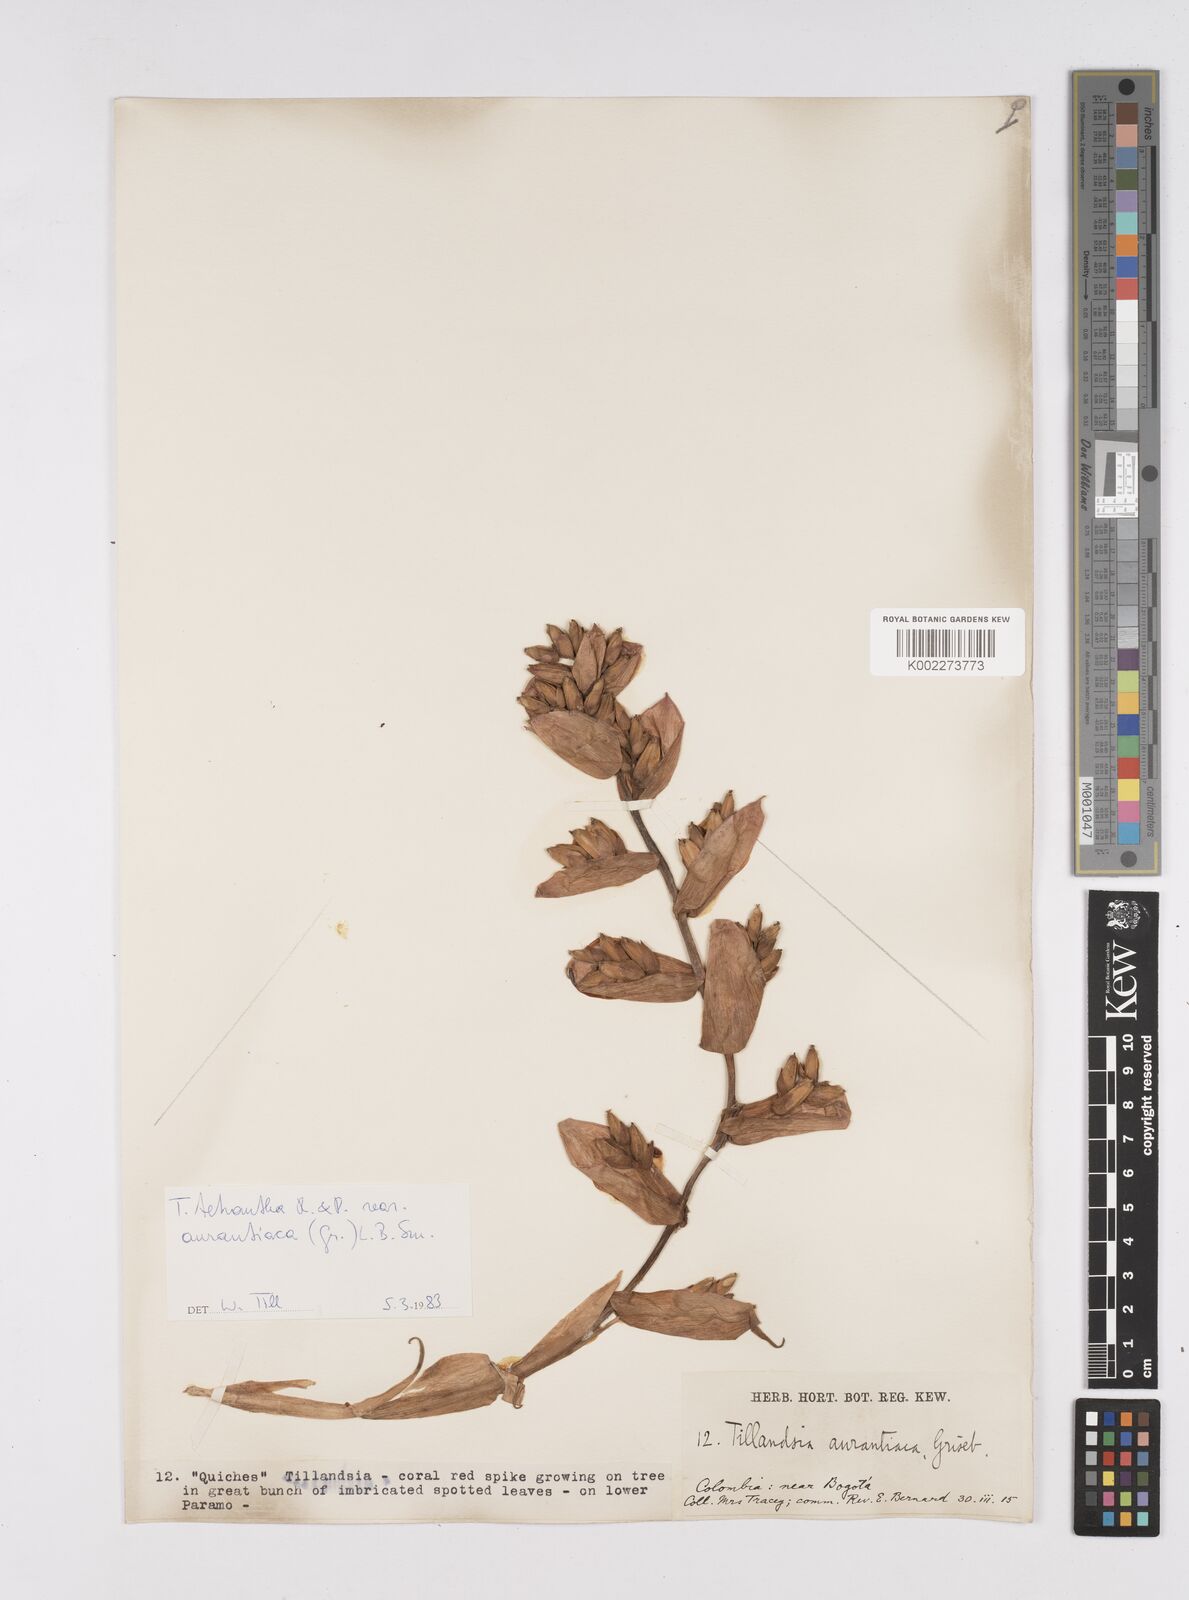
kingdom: Plantae
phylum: Tracheophyta
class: Liliopsida
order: Poales
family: Bromeliaceae
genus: Racinaea
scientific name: Racinaea tetrantha
